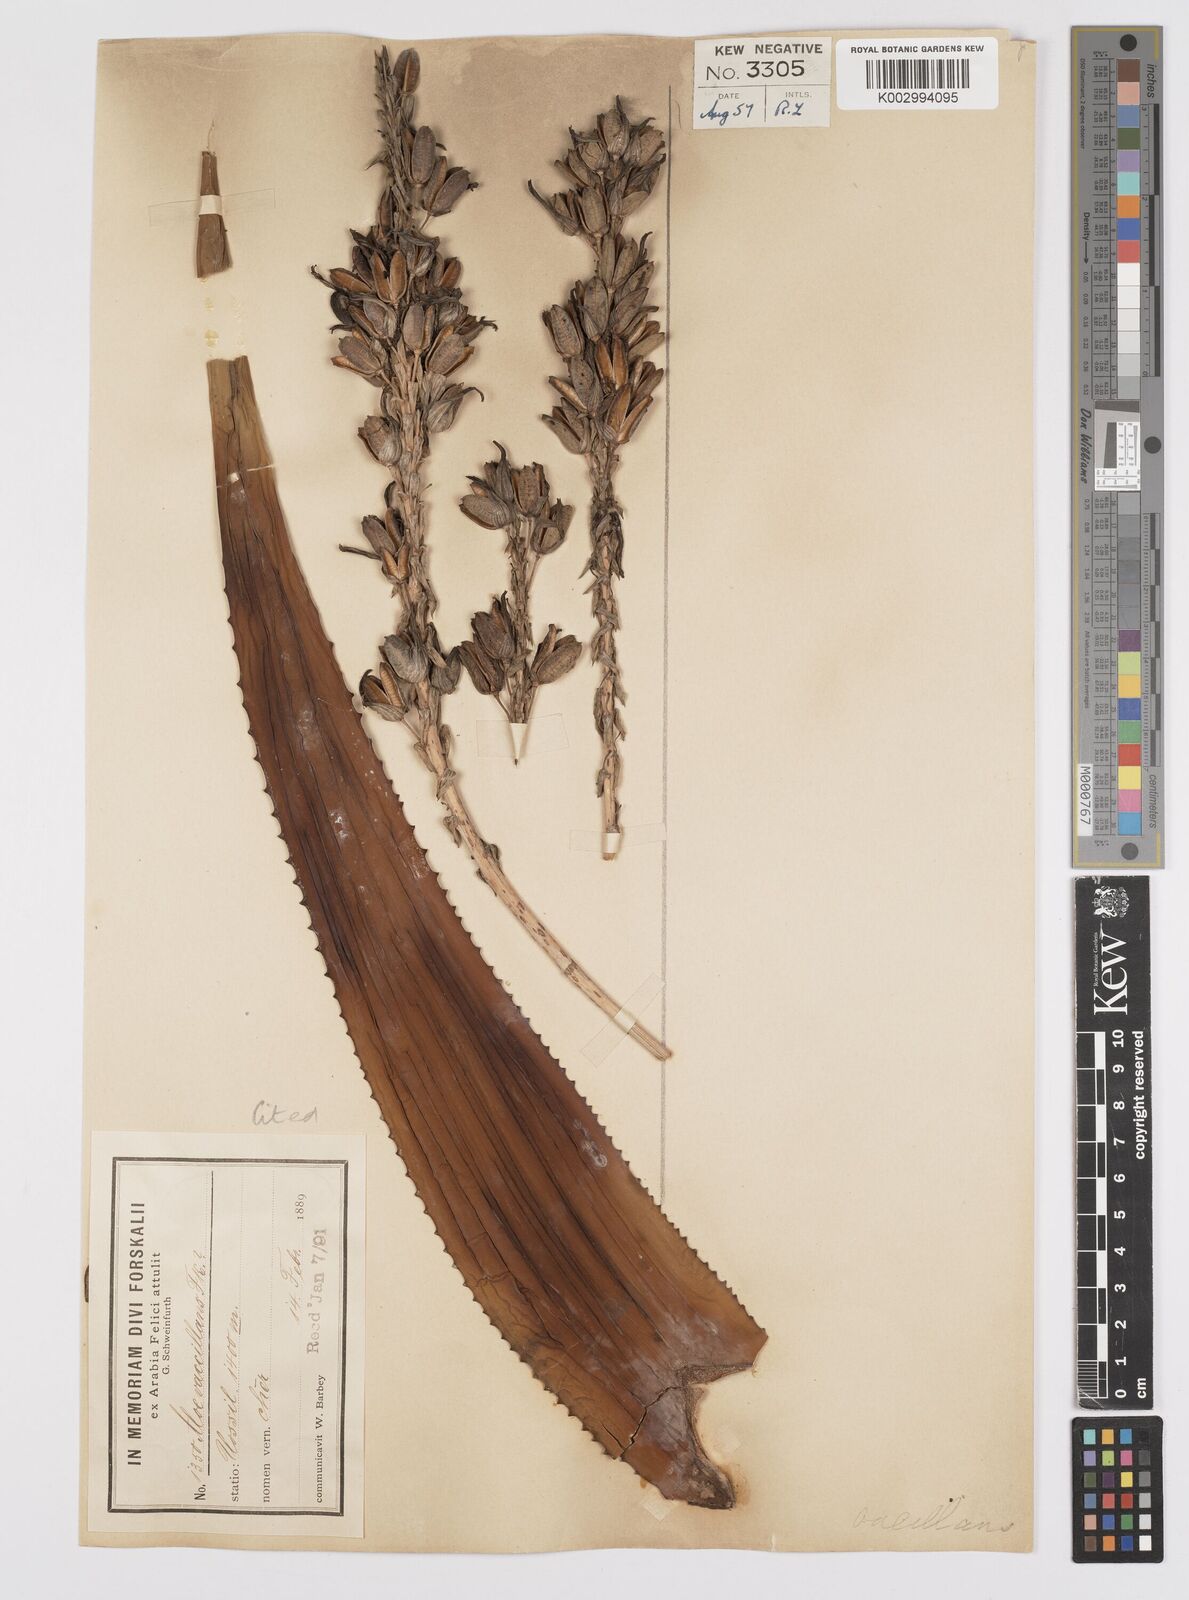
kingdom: Plantae
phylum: Tracheophyta
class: Liliopsida
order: Asparagales
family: Asphodelaceae
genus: Aloe
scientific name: Aloe vacillans
